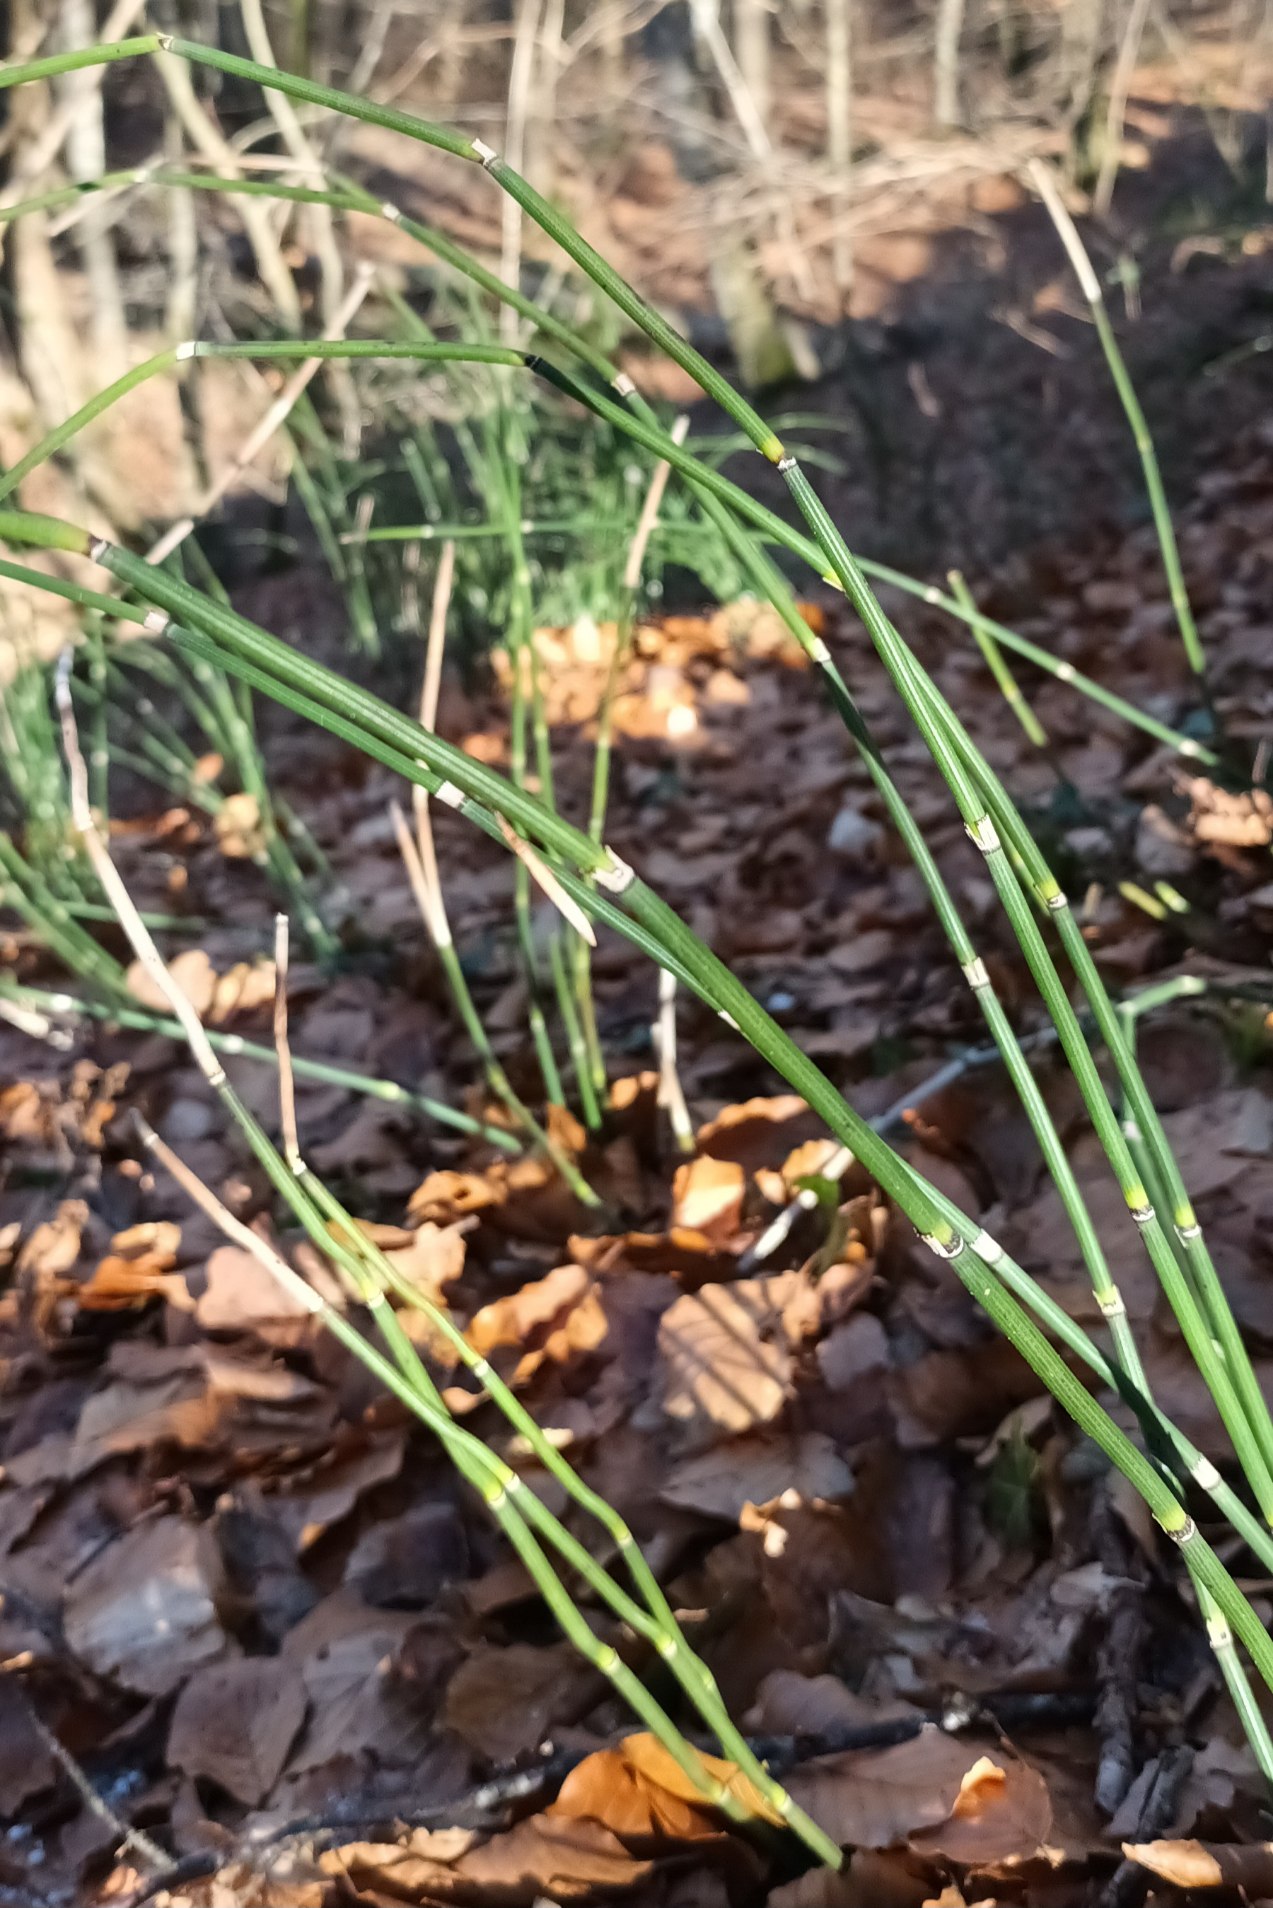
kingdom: Plantae
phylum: Tracheophyta
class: Polypodiopsida
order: Equisetales
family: Equisetaceae
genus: Equisetum
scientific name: Equisetum hyemale
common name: Skavgræs
